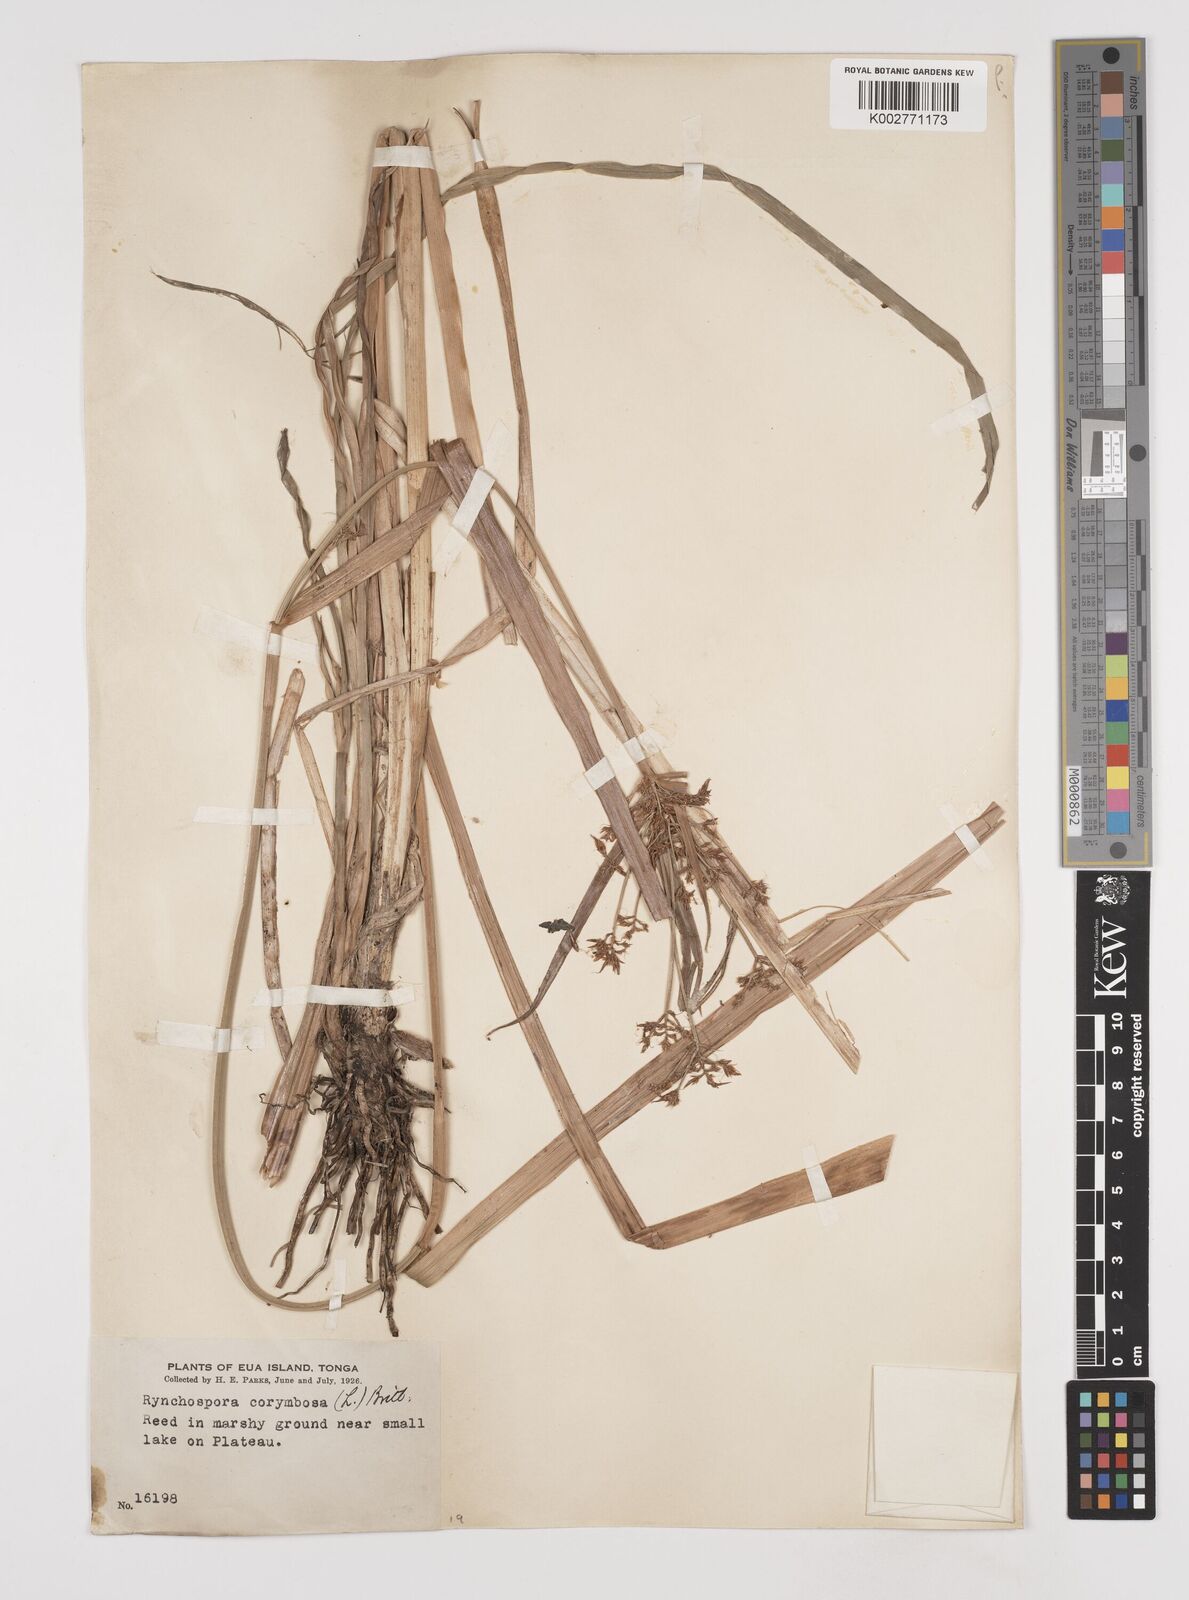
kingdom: Plantae
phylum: Tracheophyta
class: Liliopsida
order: Poales
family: Cyperaceae
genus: Rhynchospora
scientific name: Rhynchospora corymbosa
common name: Golden beak sedge
